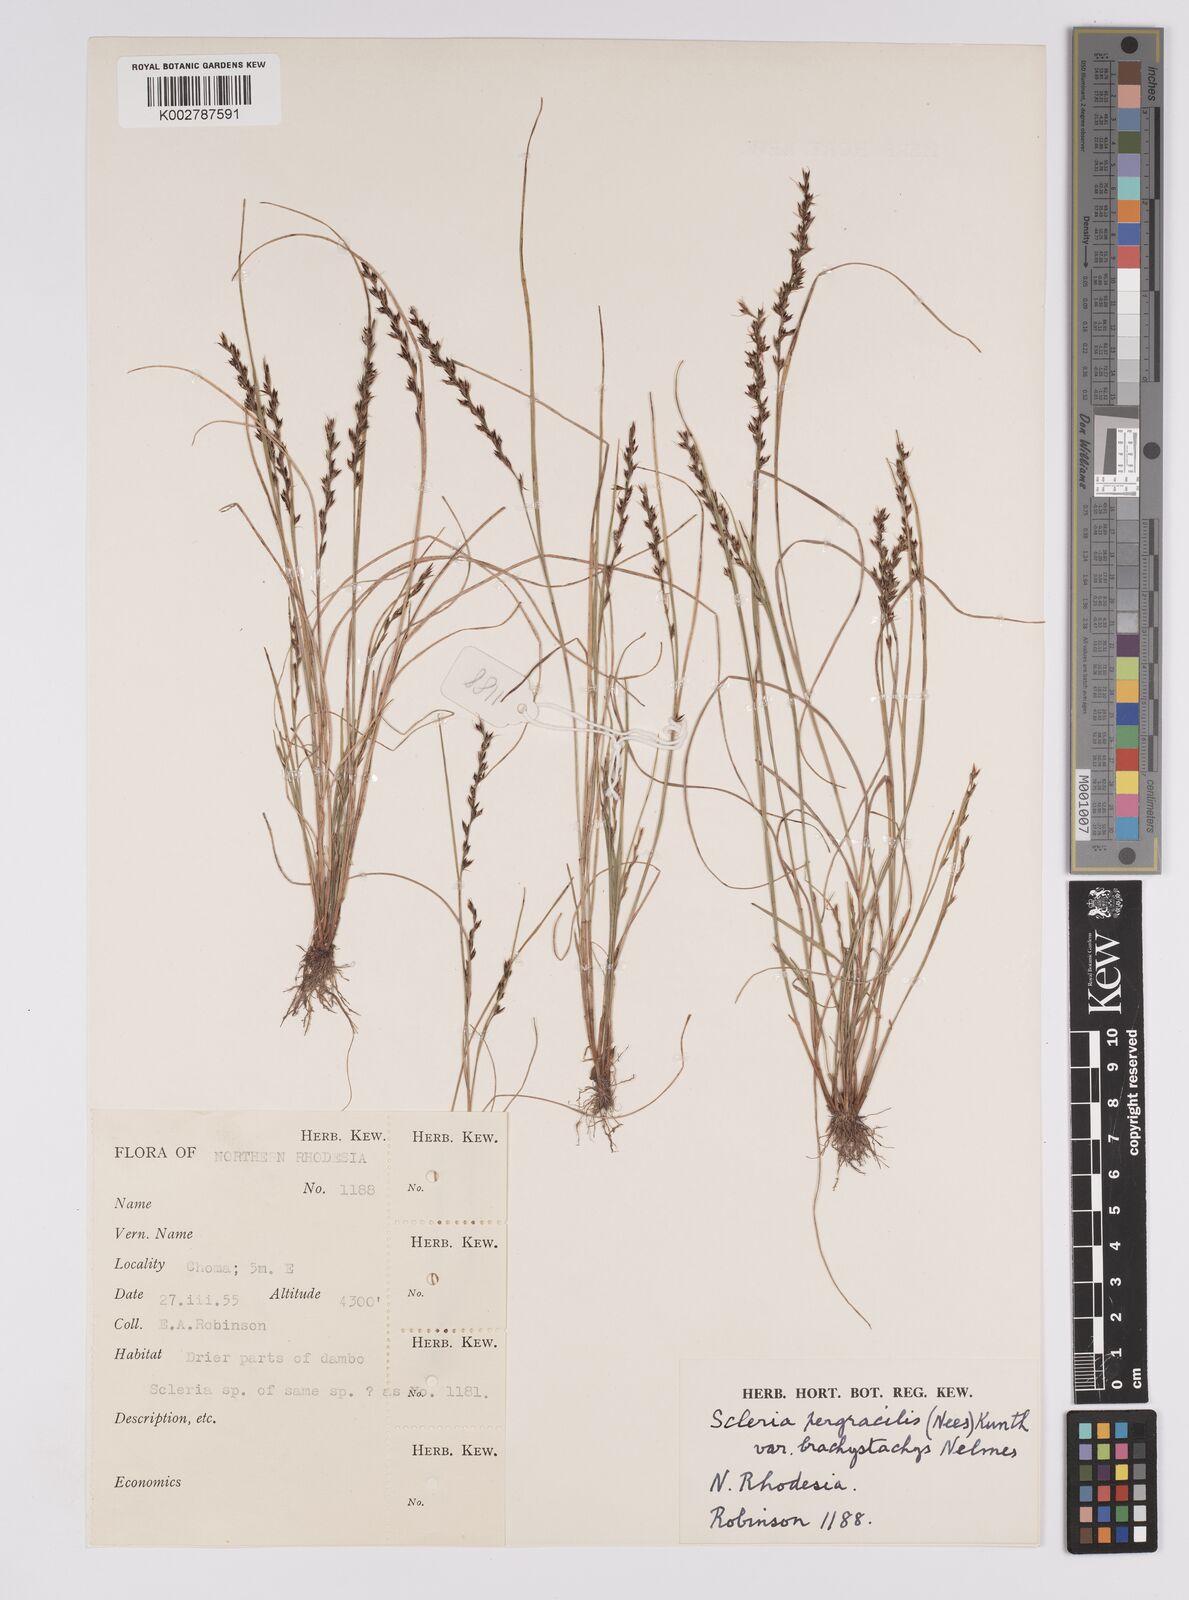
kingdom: Plantae
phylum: Tracheophyta
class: Liliopsida
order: Poales
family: Cyperaceae
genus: Scleria
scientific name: Scleria pergracilis
